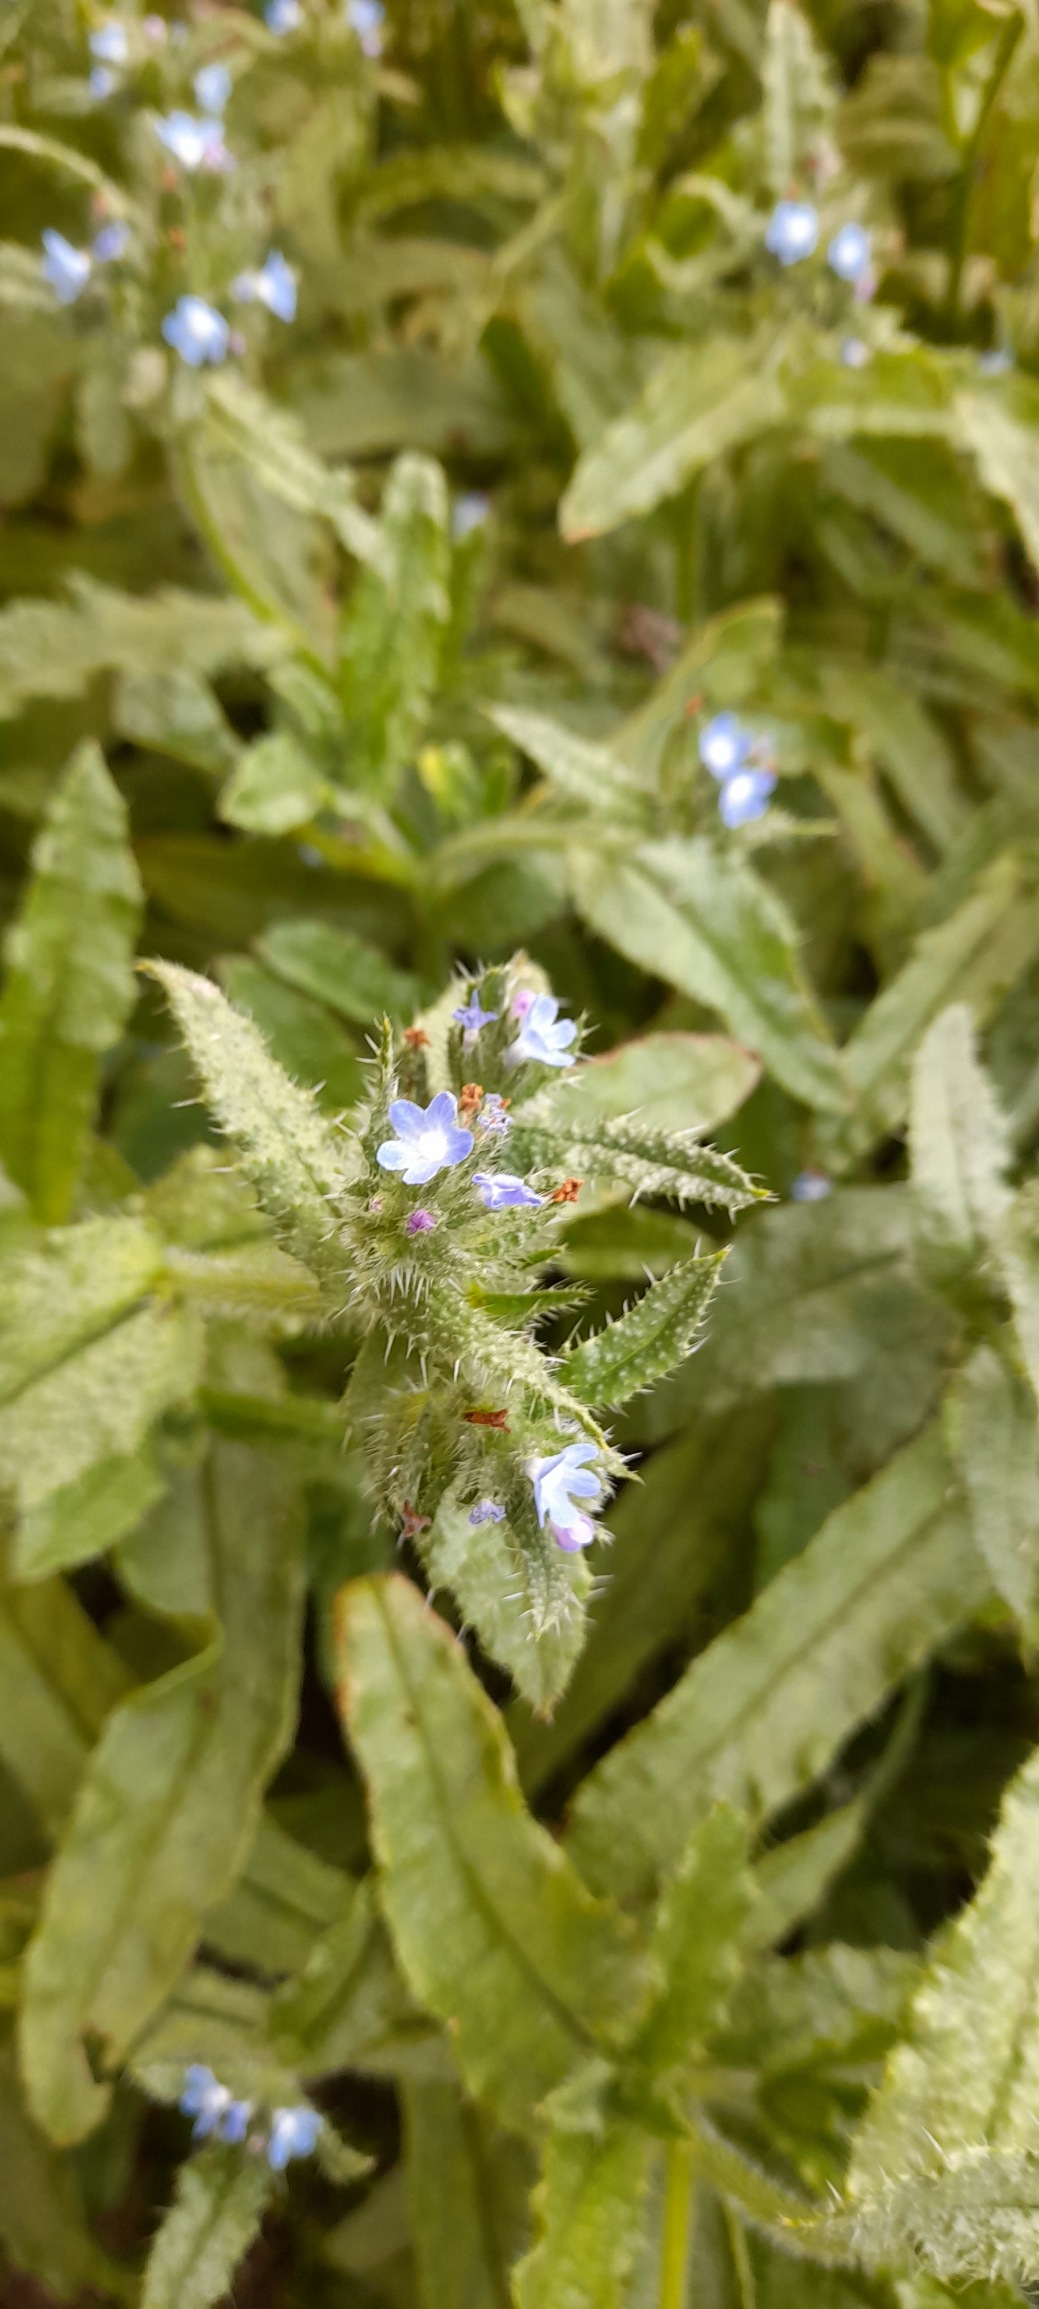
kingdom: Plantae
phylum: Tracheophyta
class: Magnoliopsida
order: Boraginales
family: Boraginaceae
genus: Lycopsis
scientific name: Lycopsis arvensis
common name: Krumhals
